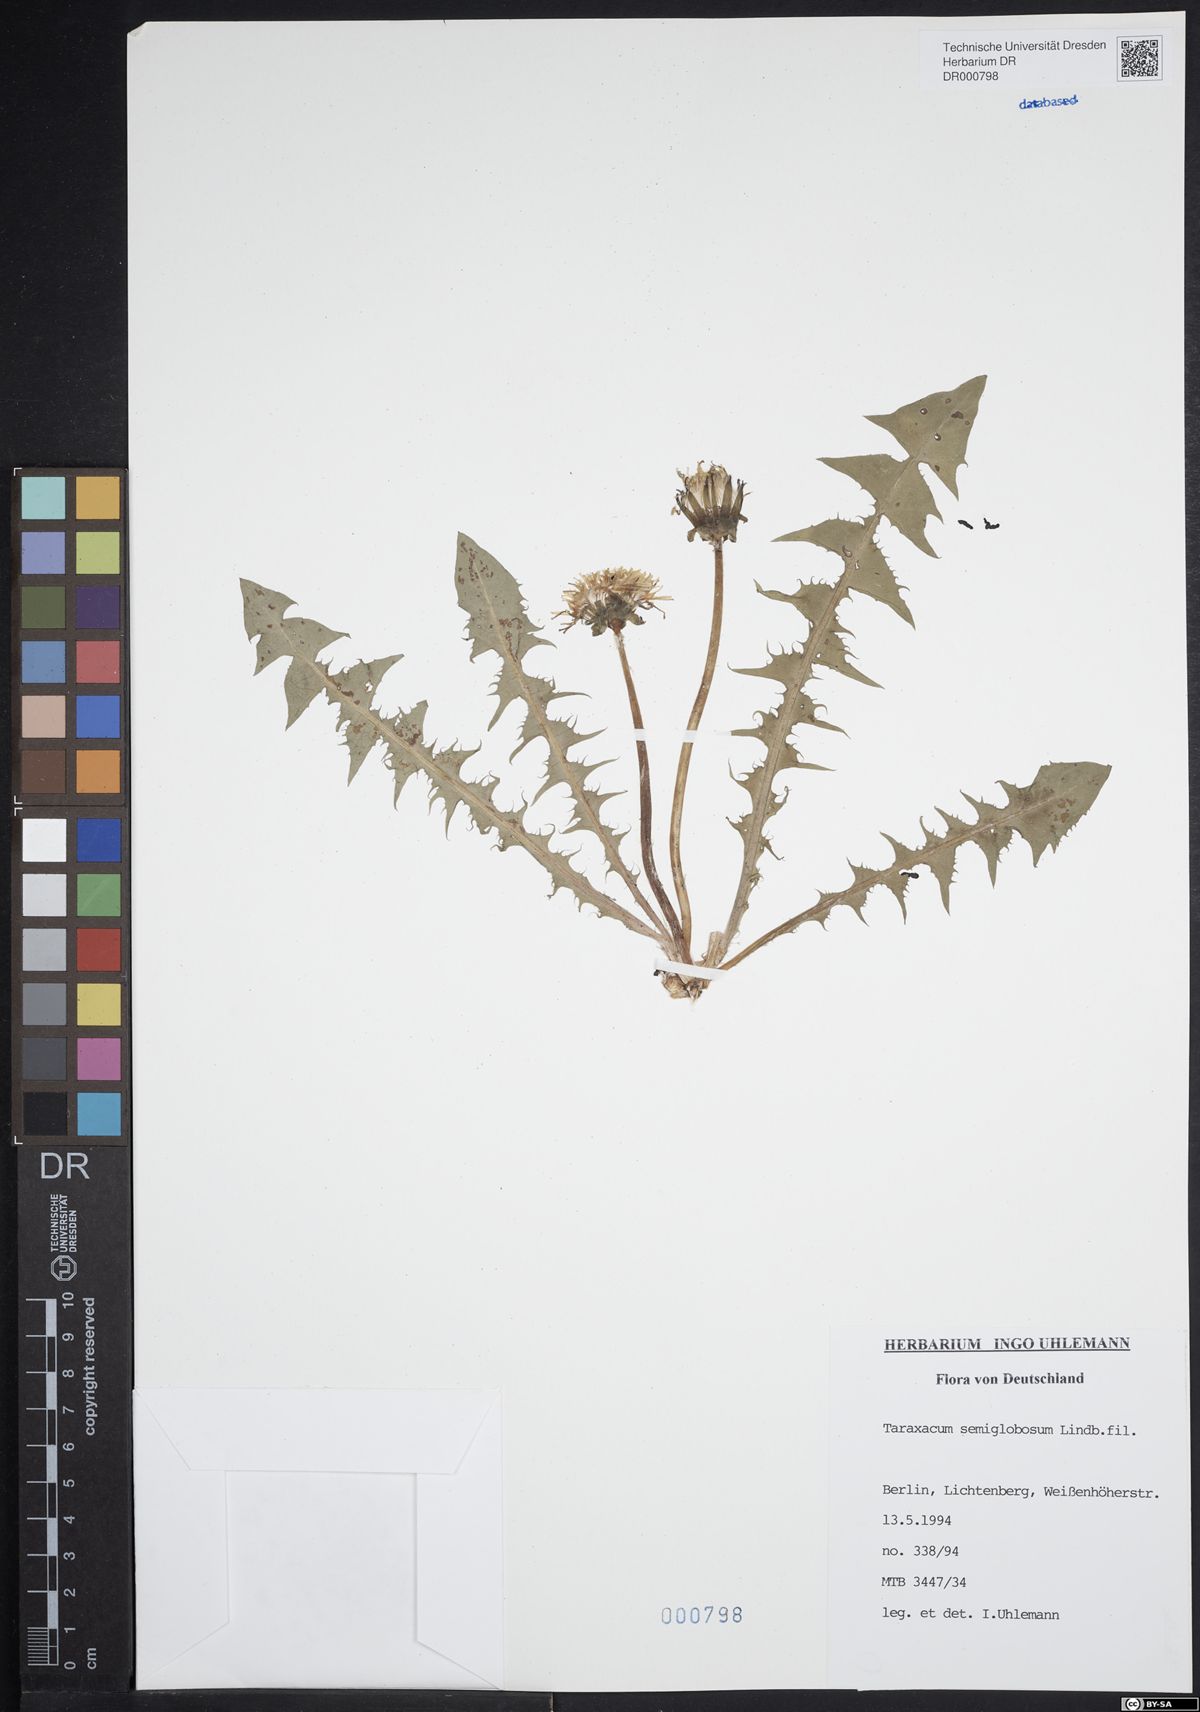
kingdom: Plantae
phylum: Tracheophyta
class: Magnoliopsida
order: Asterales
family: Asteraceae
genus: Taraxacum
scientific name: Taraxacum semiglobosum
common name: Hairy-ribbed dandelion
